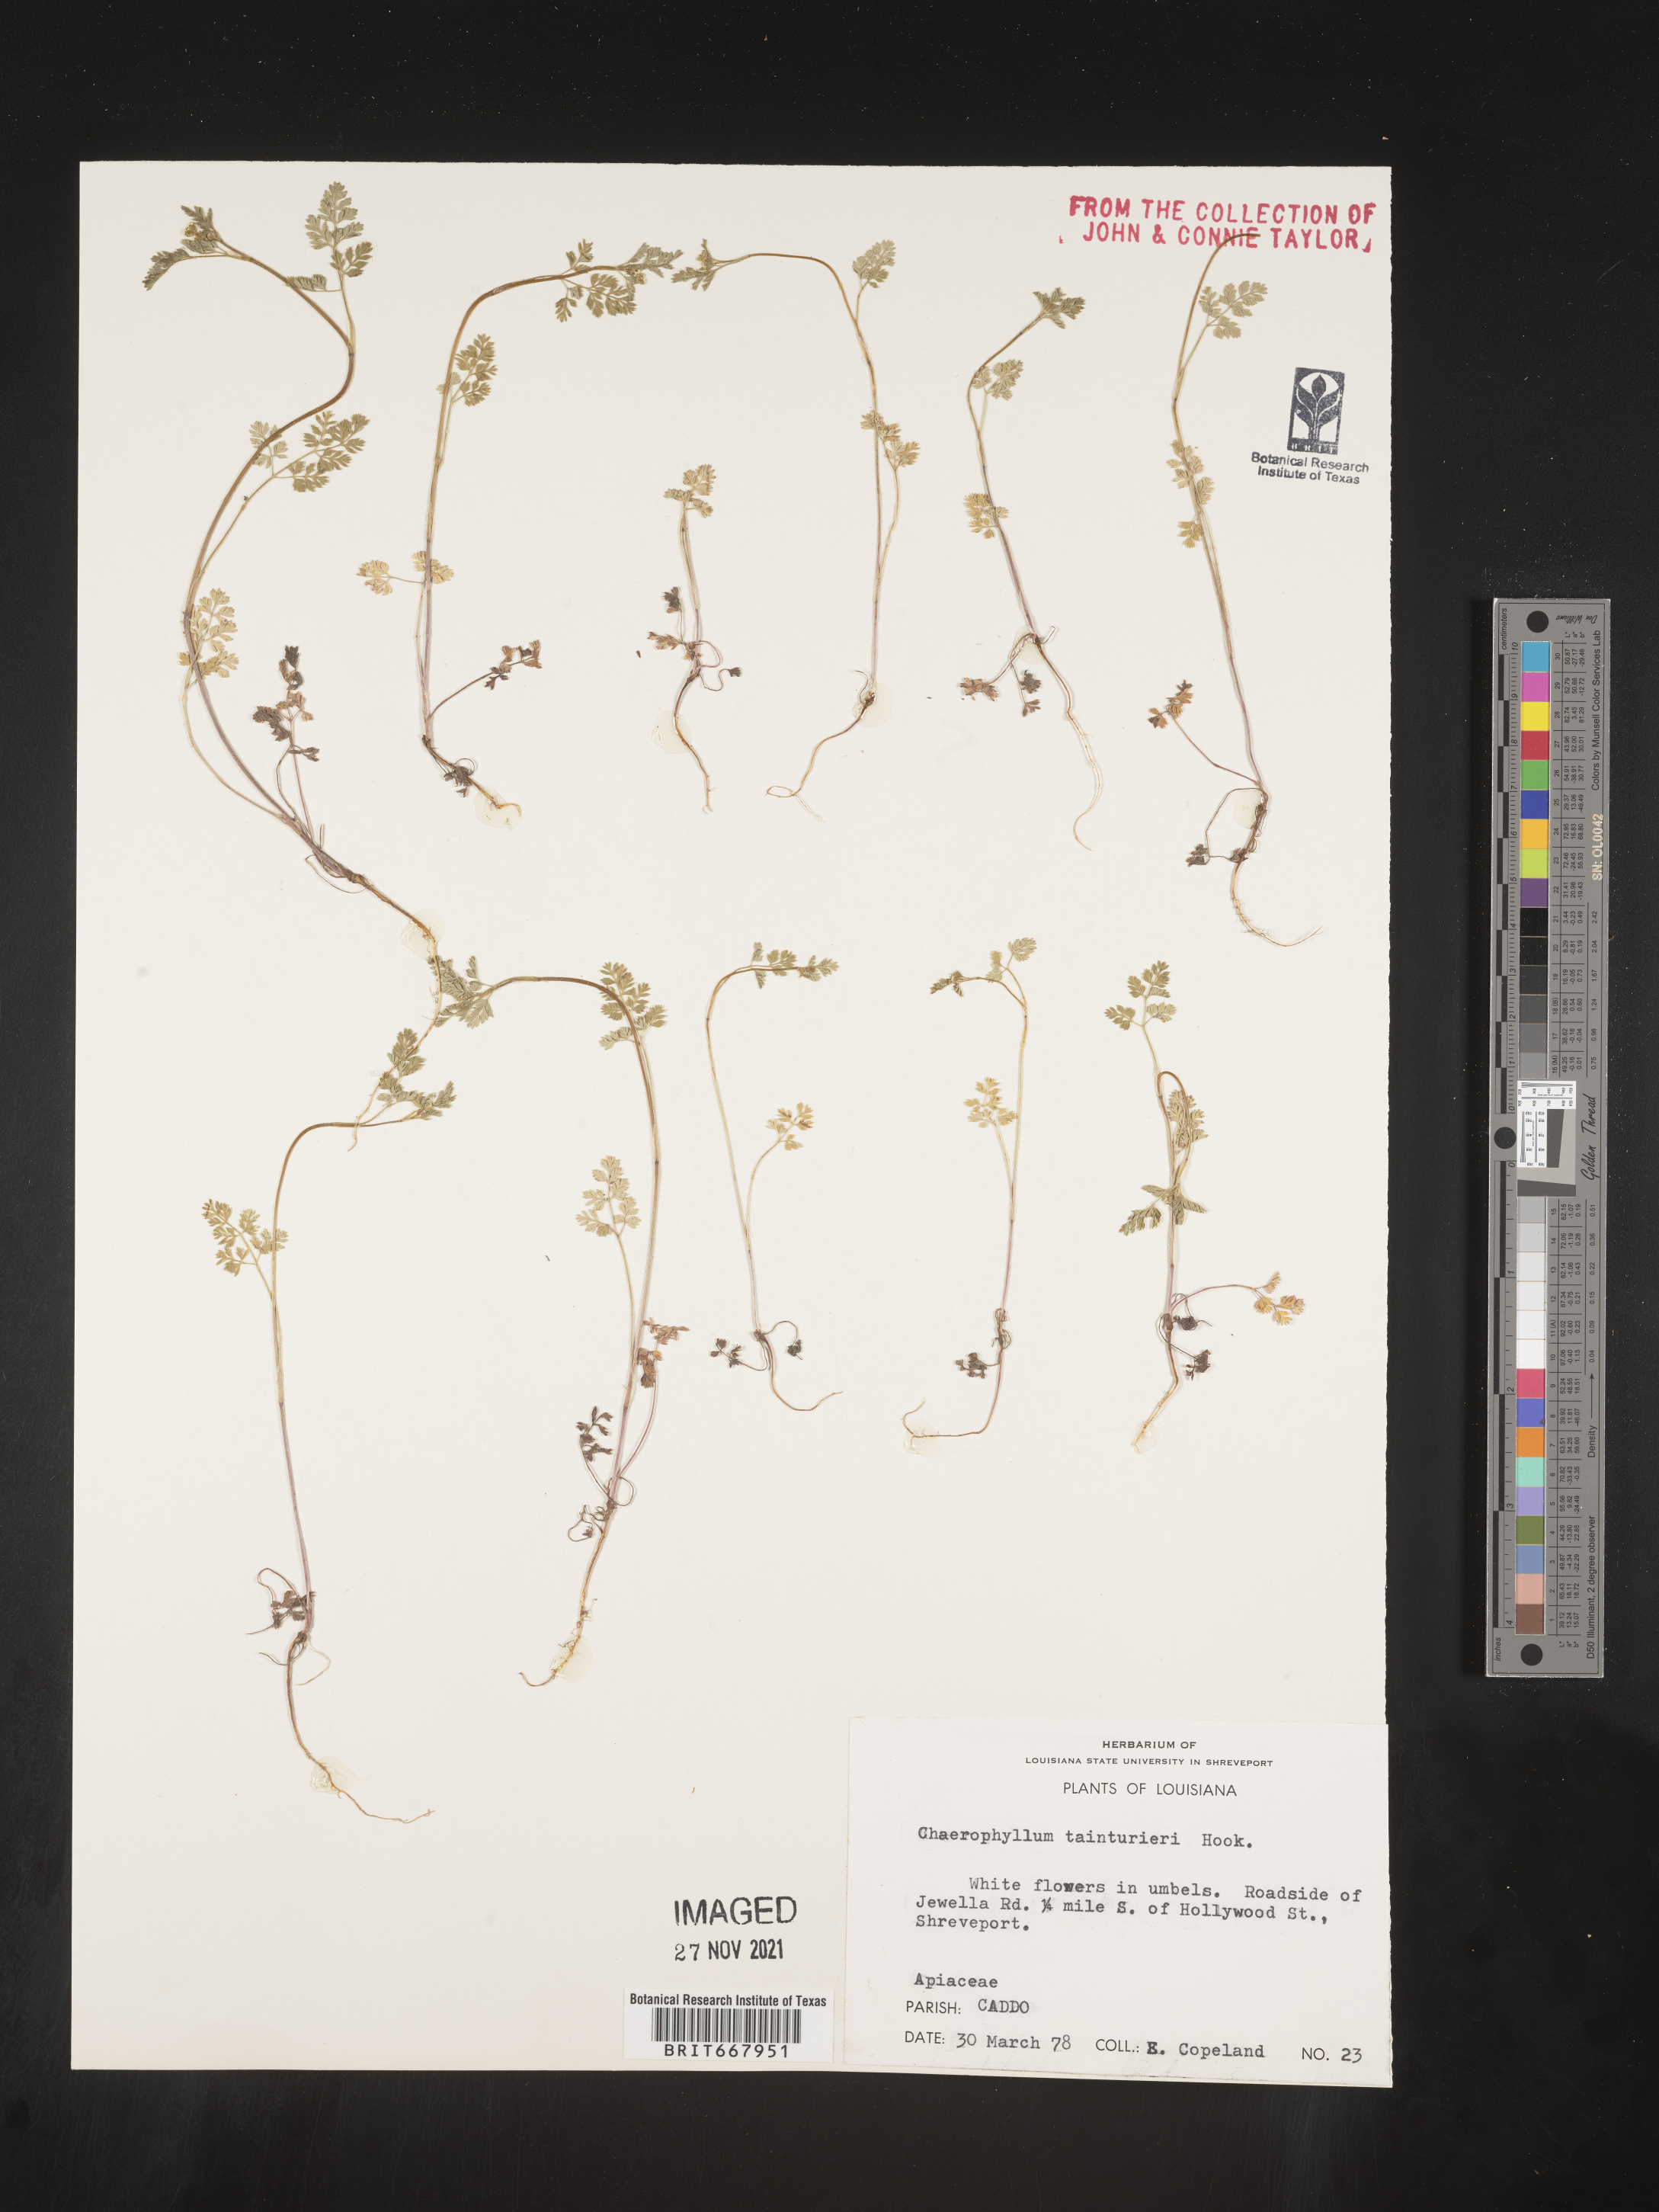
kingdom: Plantae
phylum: Tracheophyta
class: Magnoliopsida
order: Apiales
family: Apiaceae
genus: Chaerophyllum
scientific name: Chaerophyllum tainturieri
